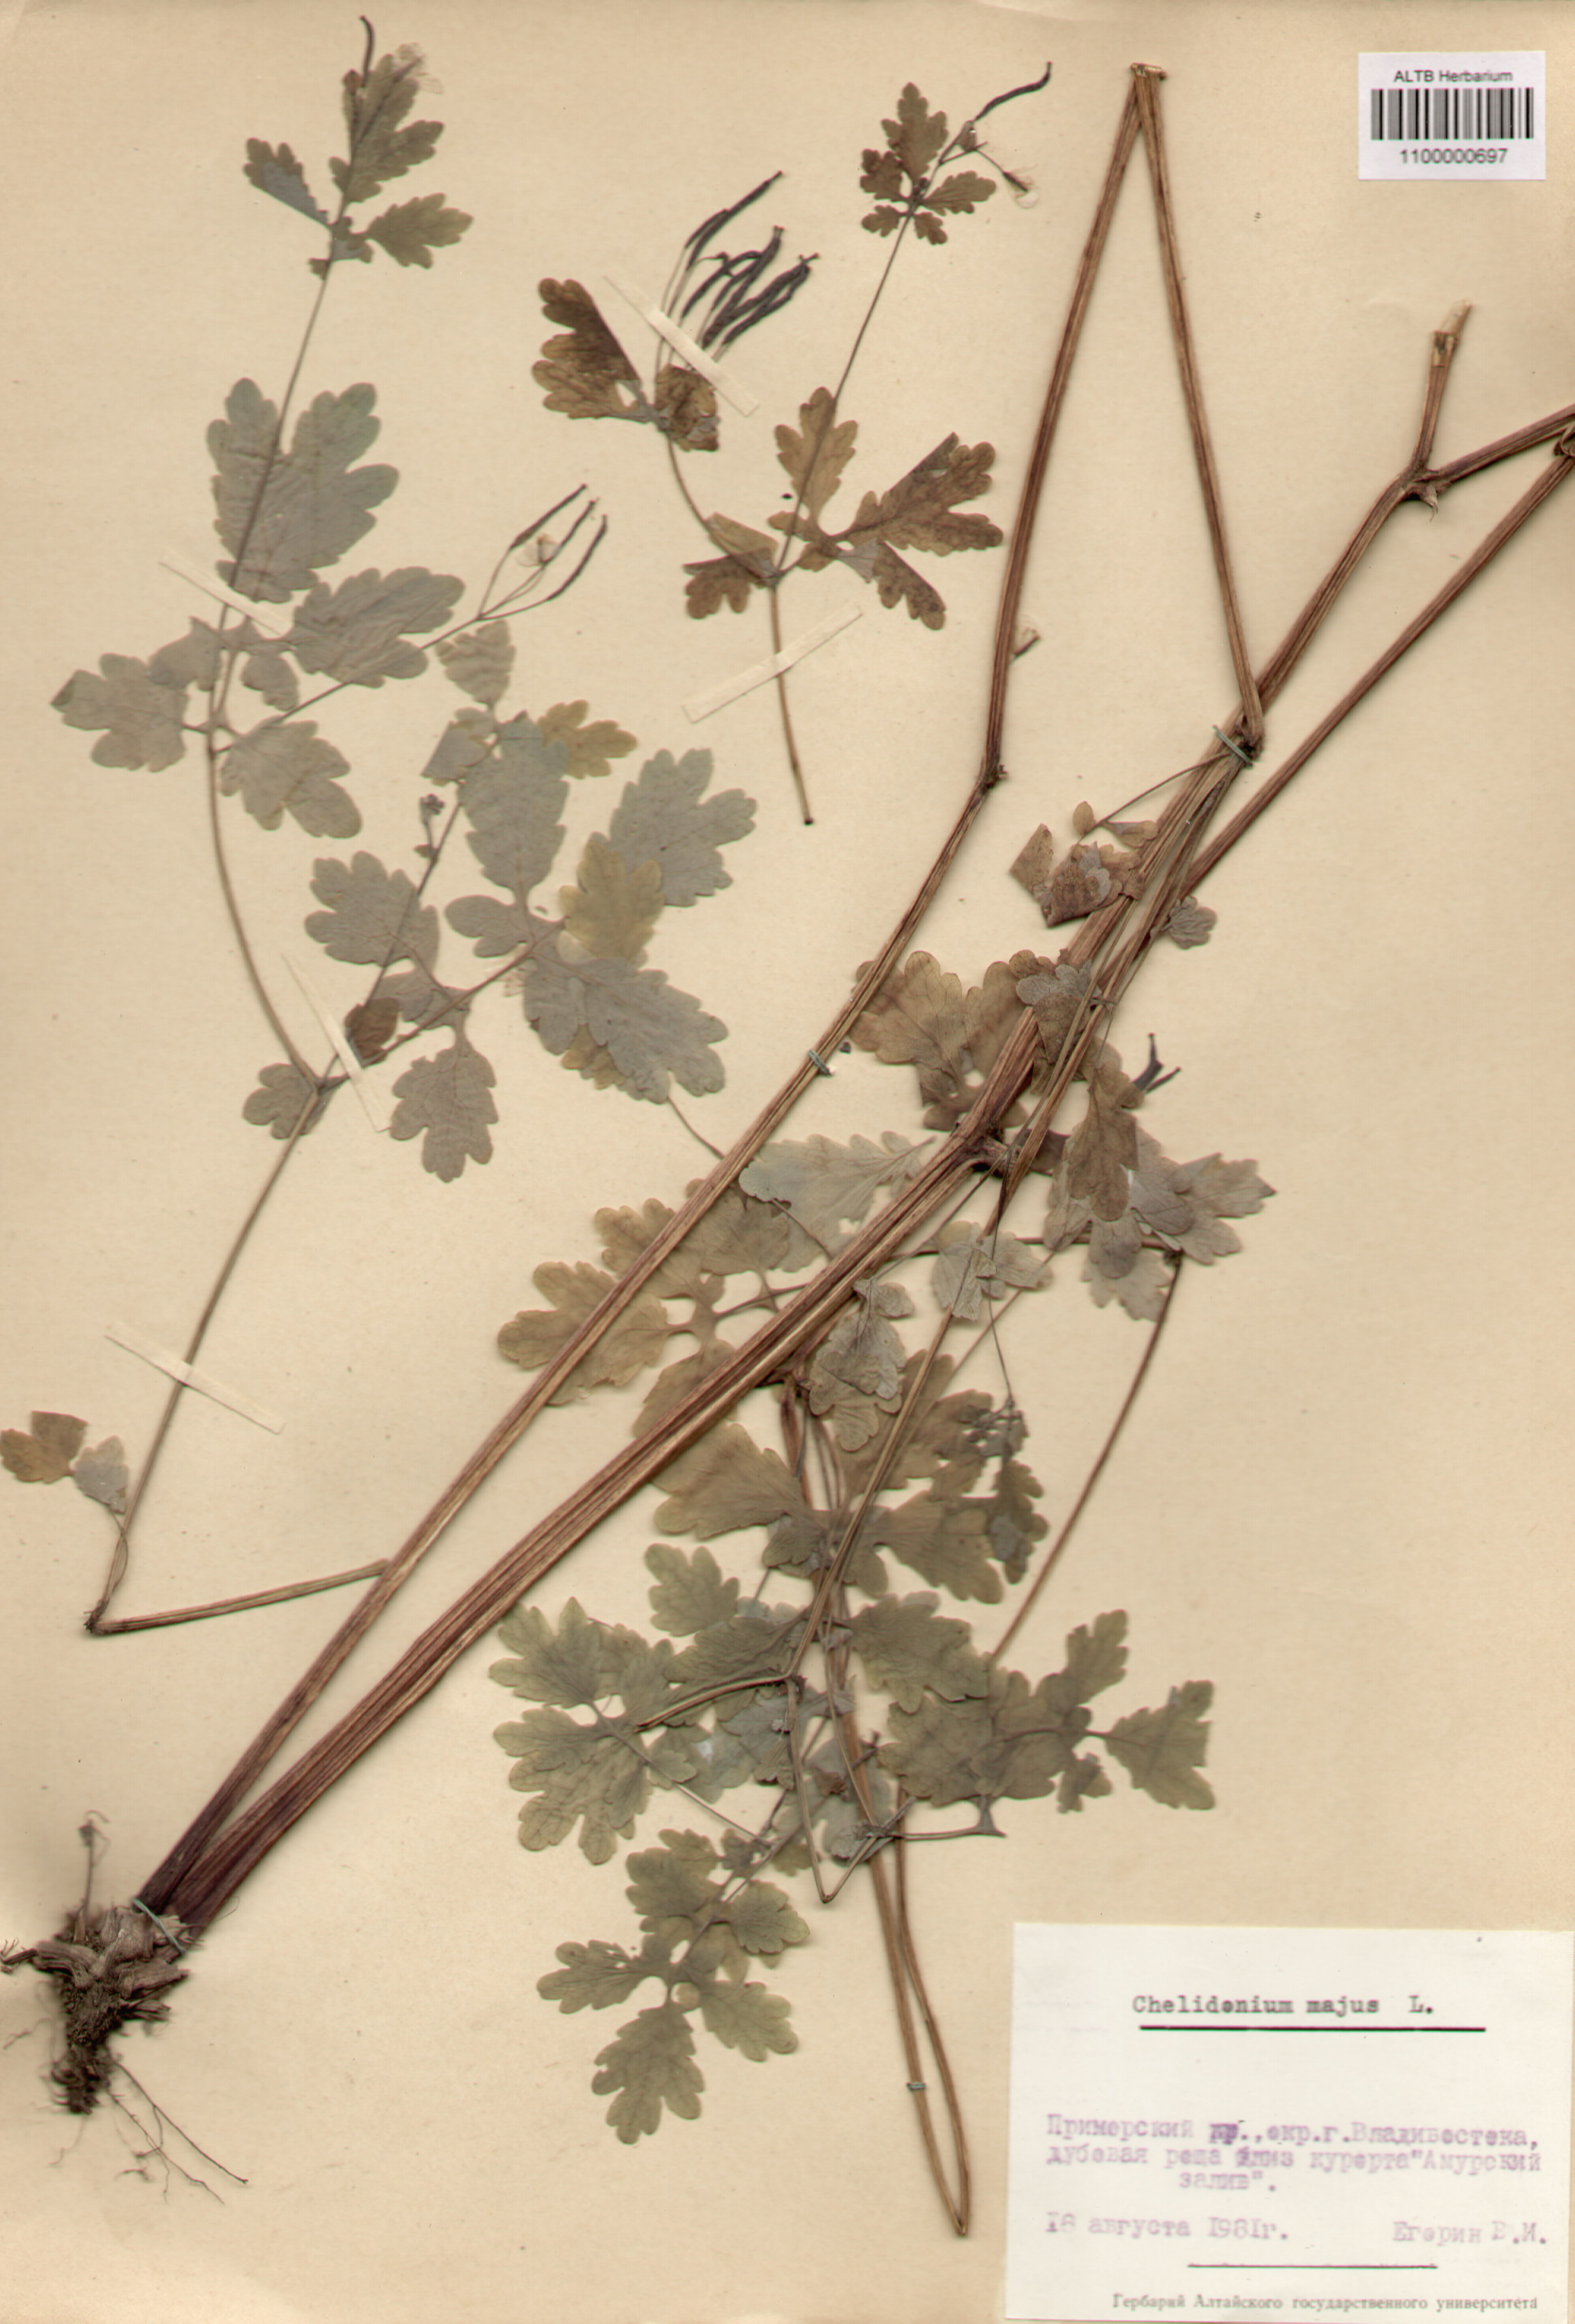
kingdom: Plantae
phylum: Tracheophyta
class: Magnoliopsida
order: Ranunculales
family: Papaveraceae
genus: Chelidonium
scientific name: Chelidonium majus
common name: Greater celandine
